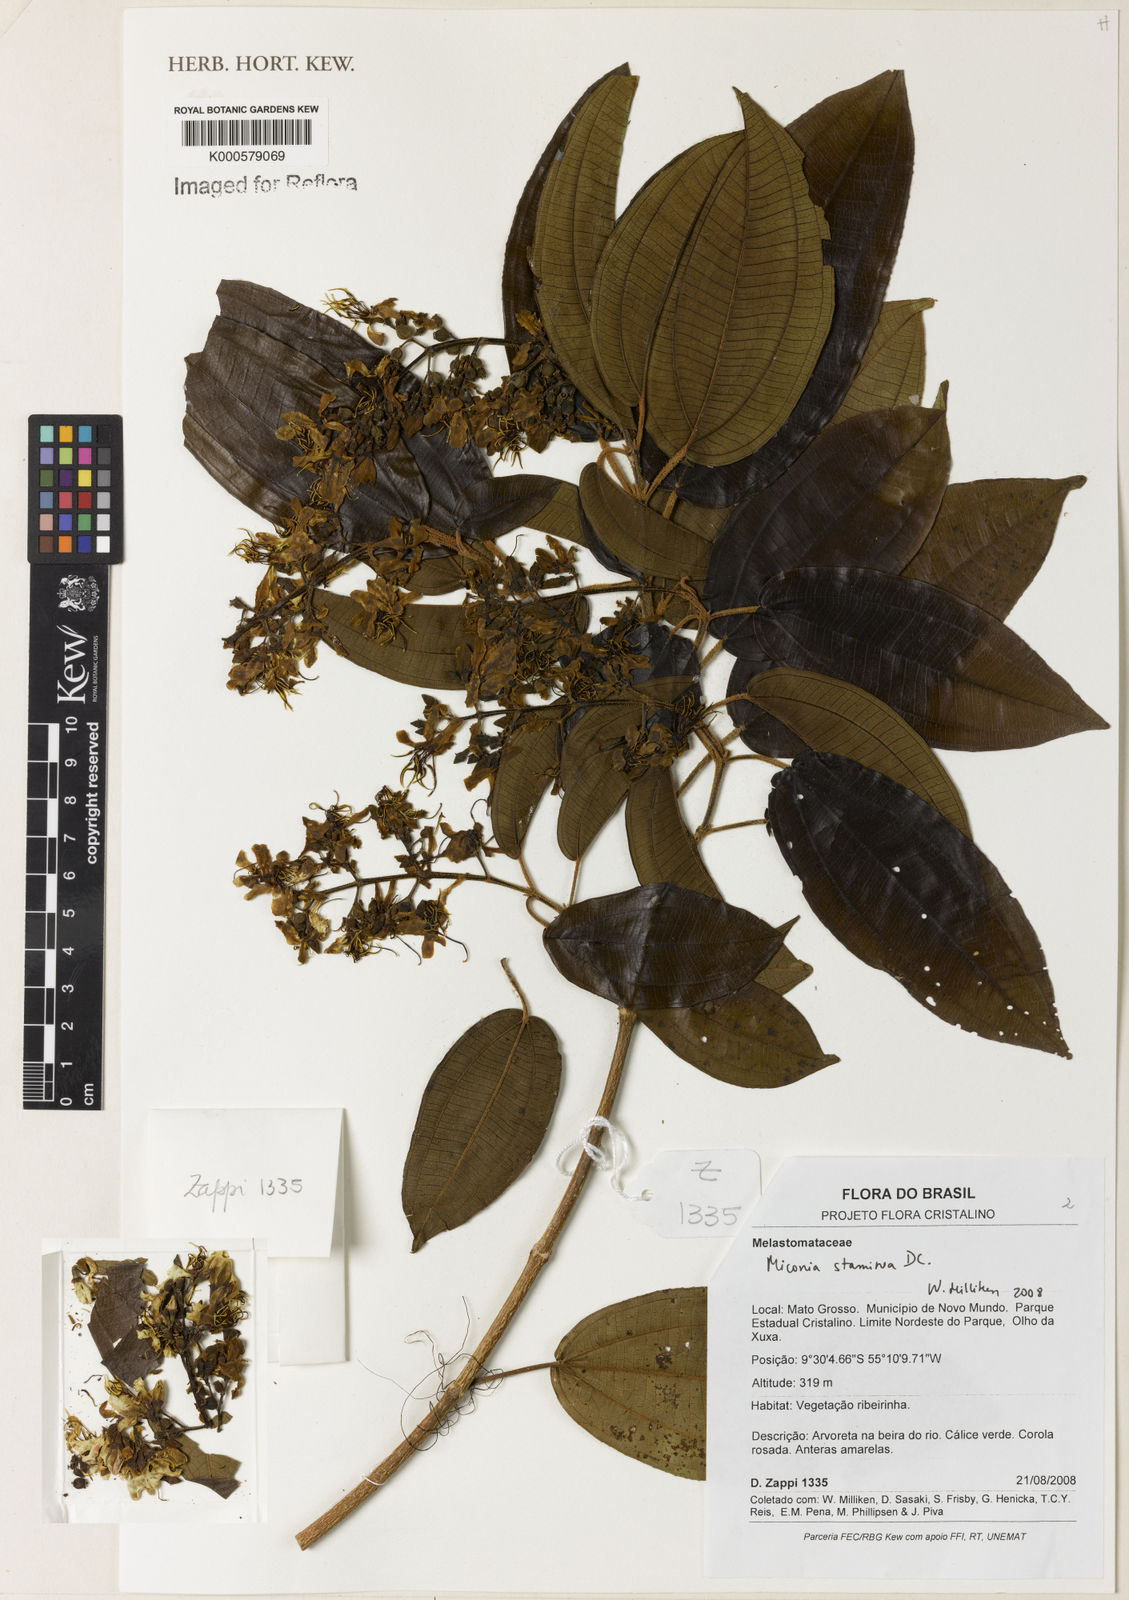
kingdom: Plantae
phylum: Tracheophyta
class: Magnoliopsida
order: Myrtales
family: Melastomataceae
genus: Miconia
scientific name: Miconia staminea
